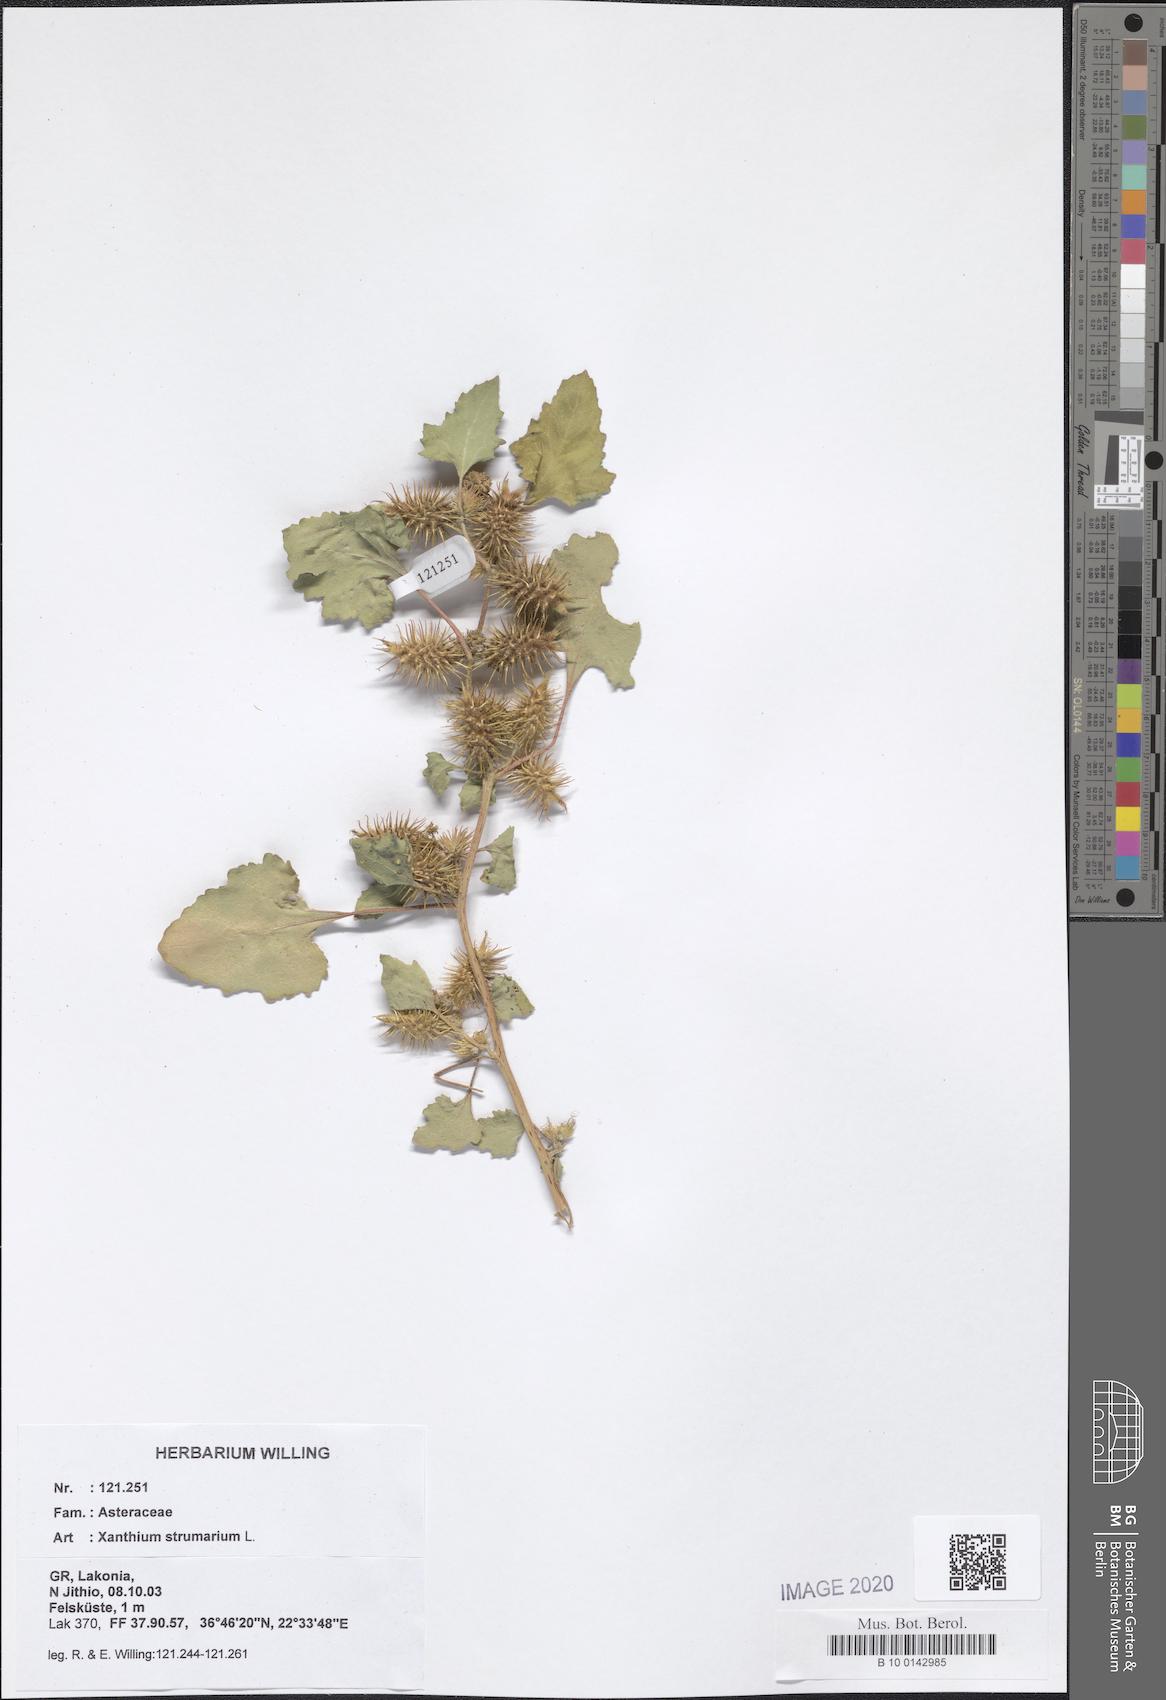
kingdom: Plantae
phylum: Tracheophyta
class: Magnoliopsida
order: Asterales
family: Asteraceae
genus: Xanthium
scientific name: Xanthium strumarium
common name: Rough cocklebur
